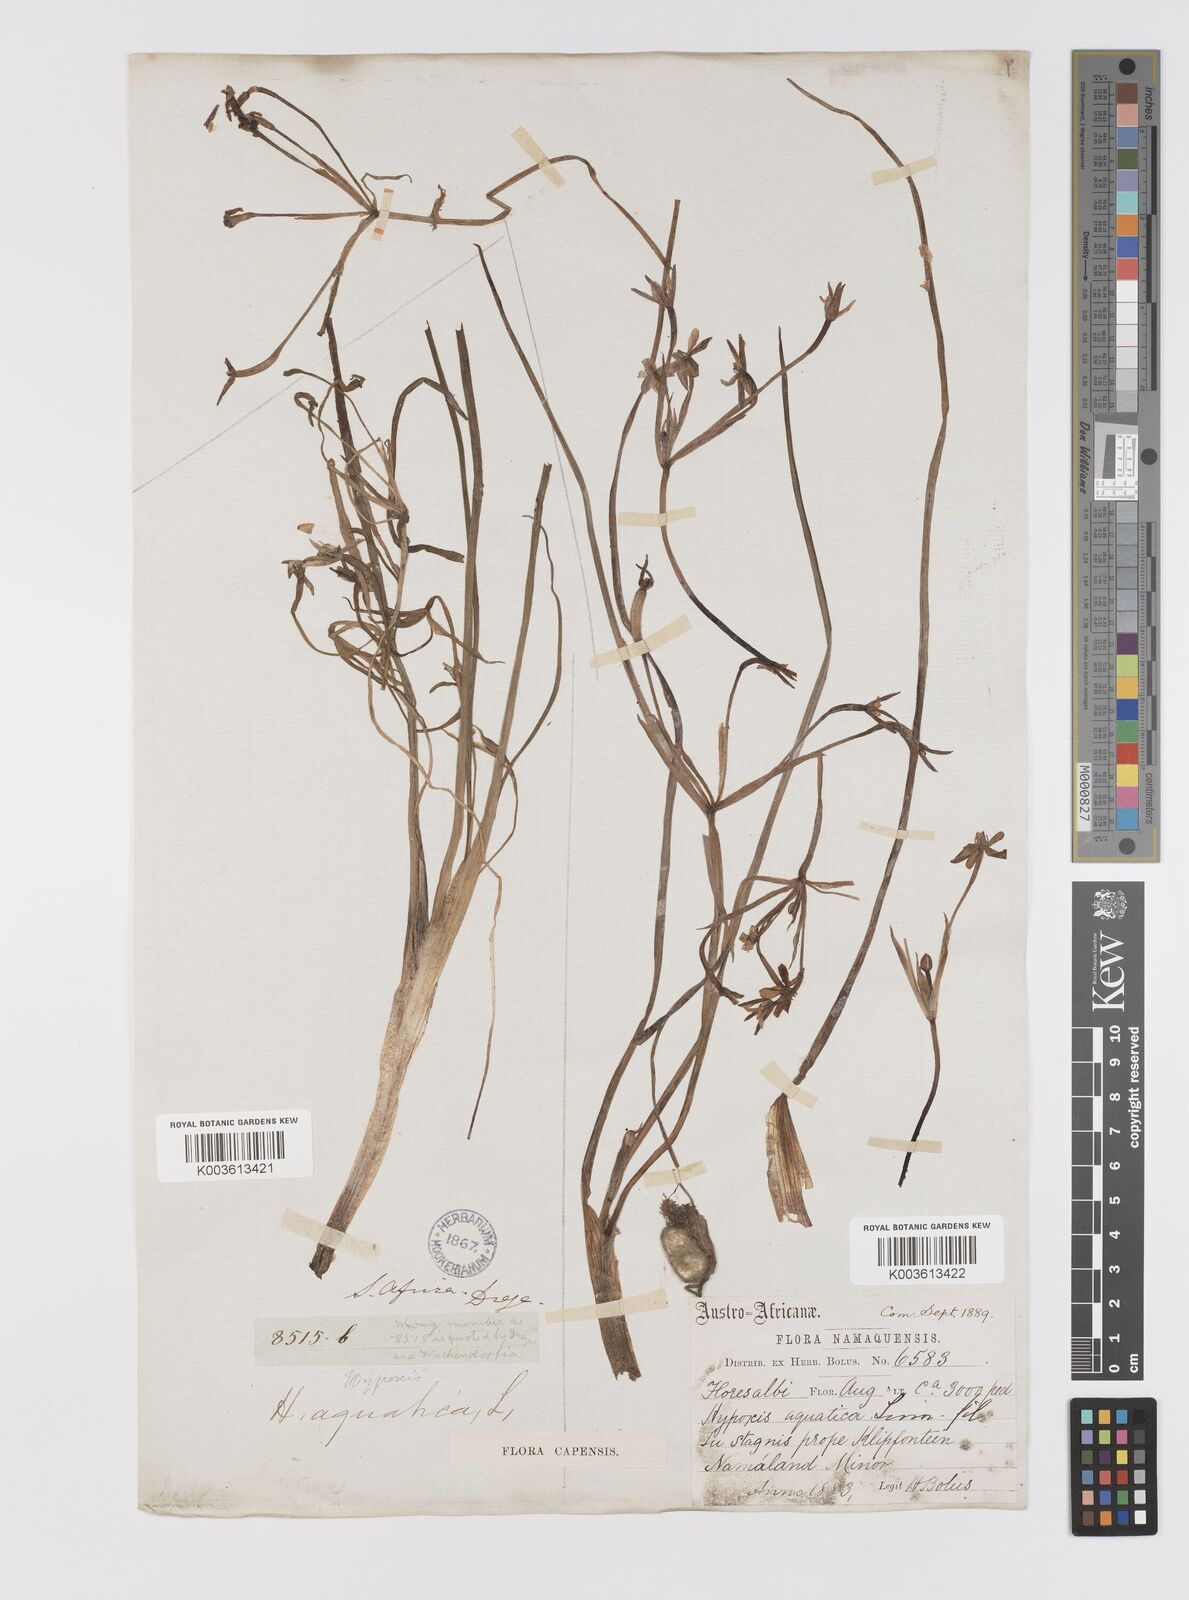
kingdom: Plantae
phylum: Tracheophyta
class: Liliopsida
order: Asparagales
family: Hypoxidaceae
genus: Pauridia
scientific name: Pauridia aquatica
